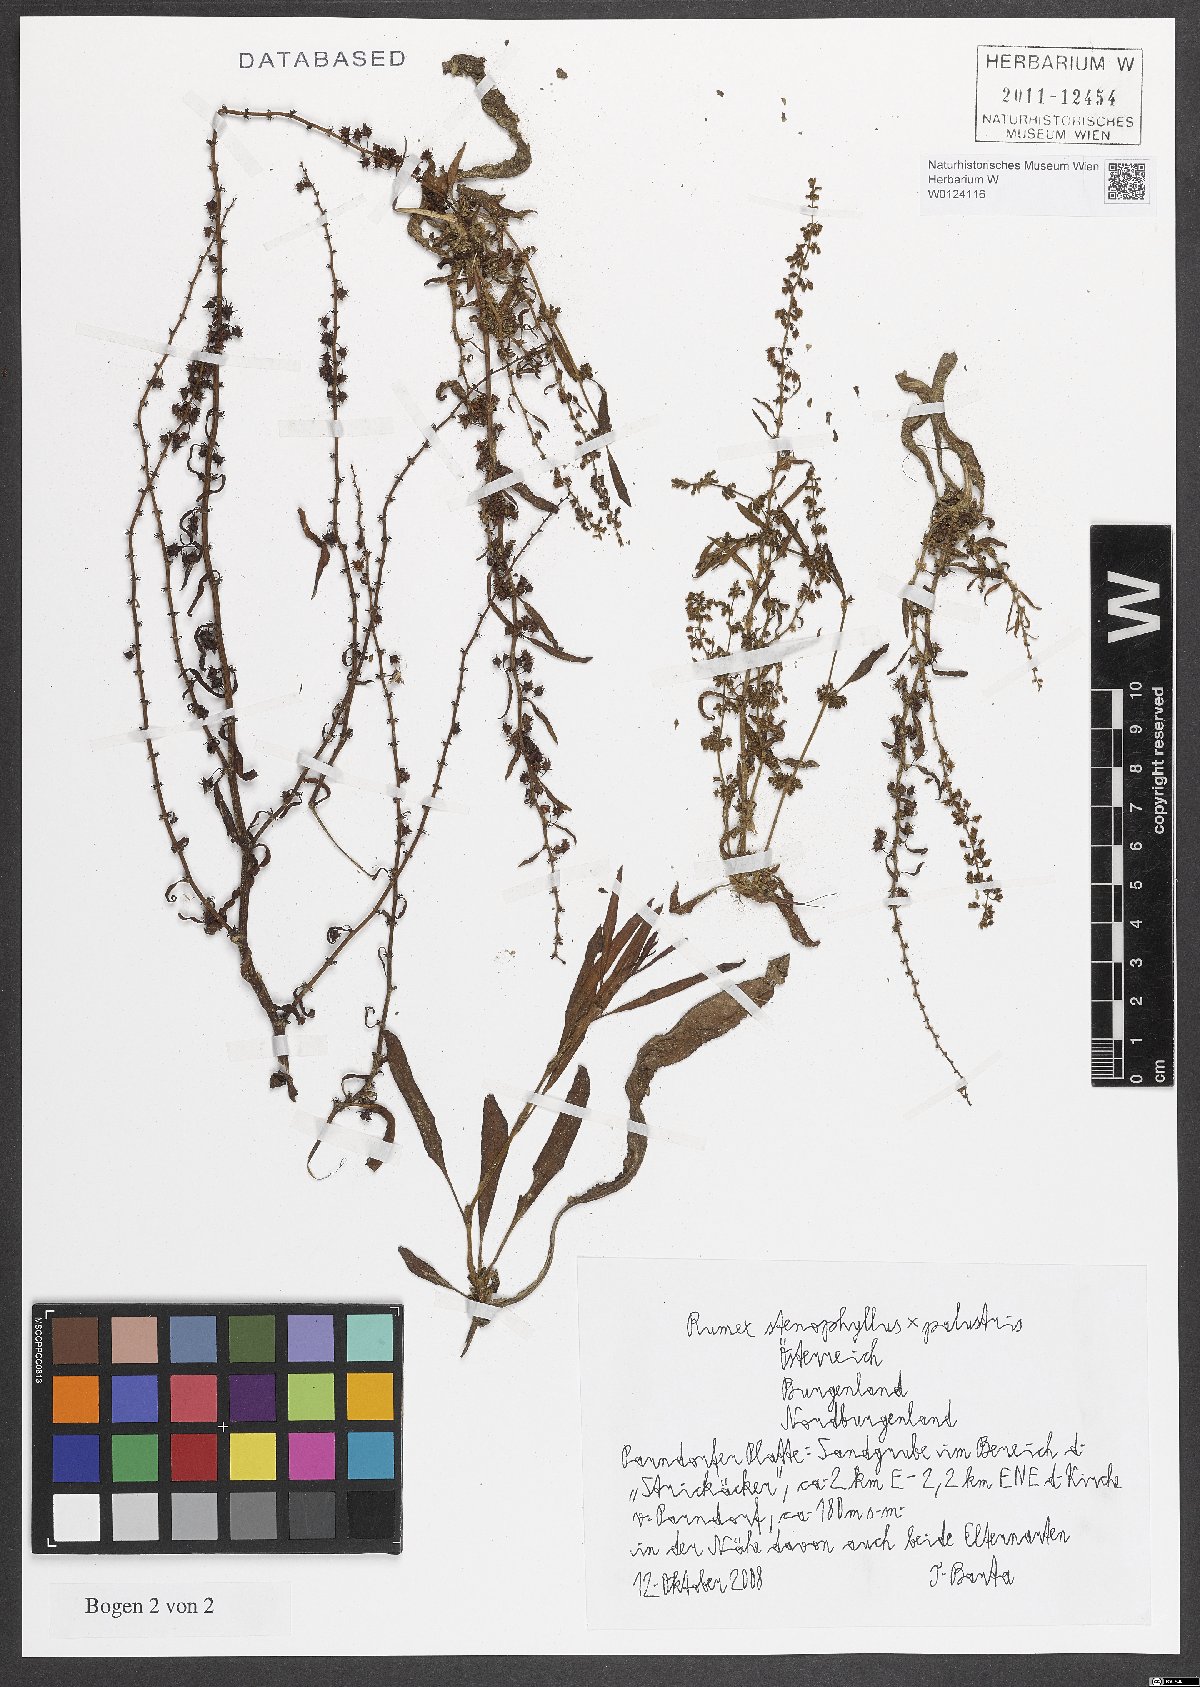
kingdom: Plantae
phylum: Tracheophyta
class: Magnoliopsida
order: Caryophyllales
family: Polygonaceae
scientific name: Polygonaceae
